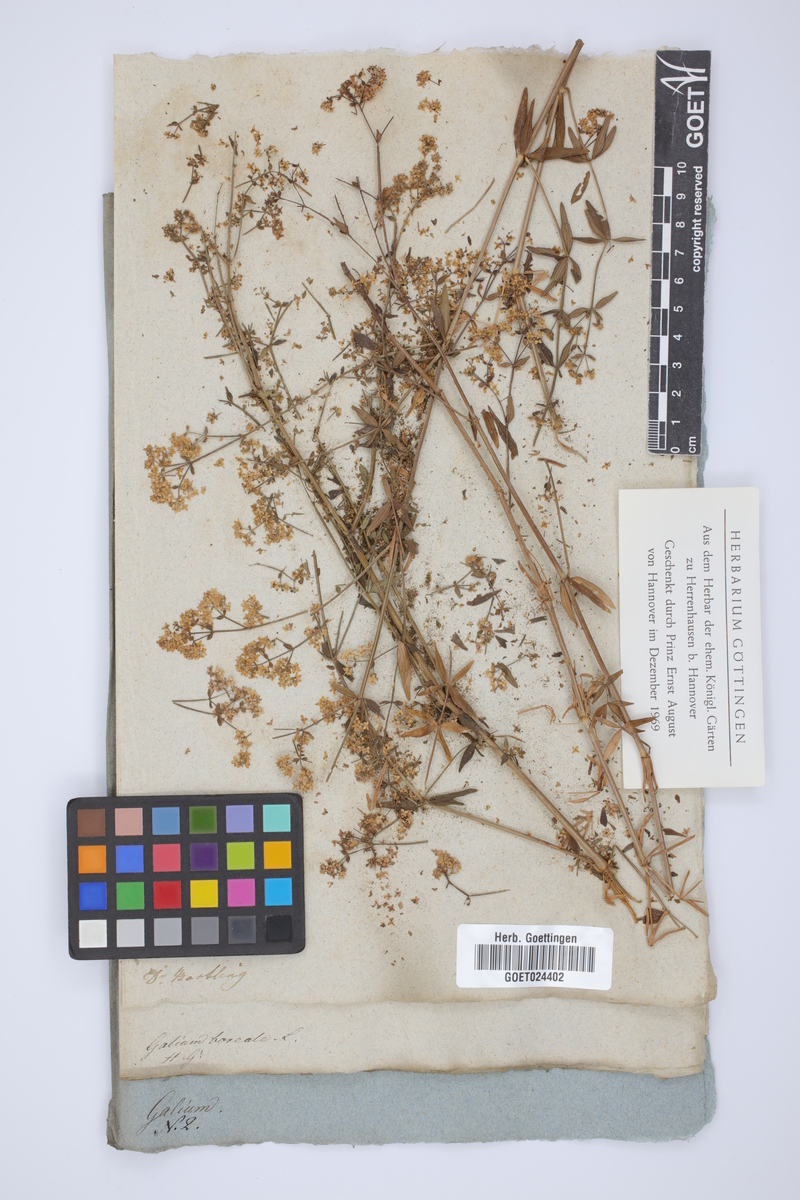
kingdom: Plantae
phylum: Tracheophyta
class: Magnoliopsida
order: Gentianales
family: Rubiaceae
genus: Galium
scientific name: Galium boreale
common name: Northern bedstraw
